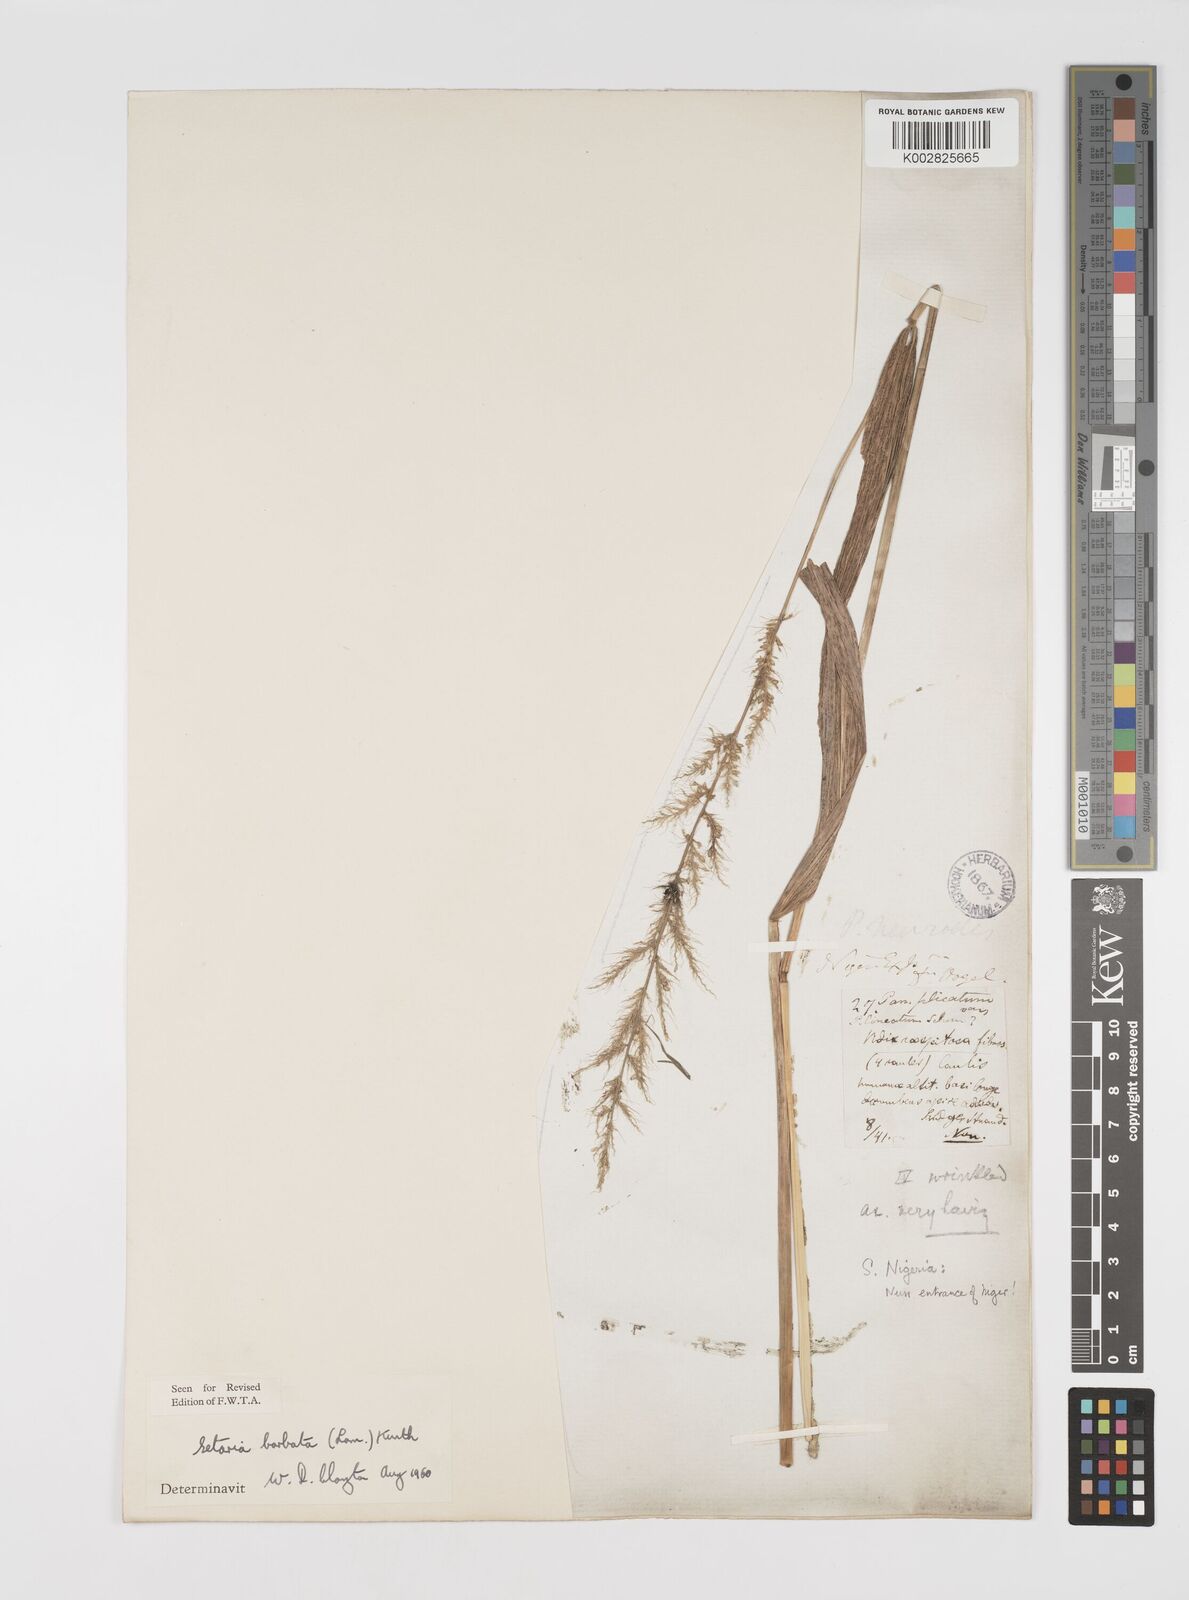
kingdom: Plantae
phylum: Tracheophyta
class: Liliopsida
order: Poales
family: Poaceae
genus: Setaria
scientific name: Setaria barbata
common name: East indian bristlegrass
